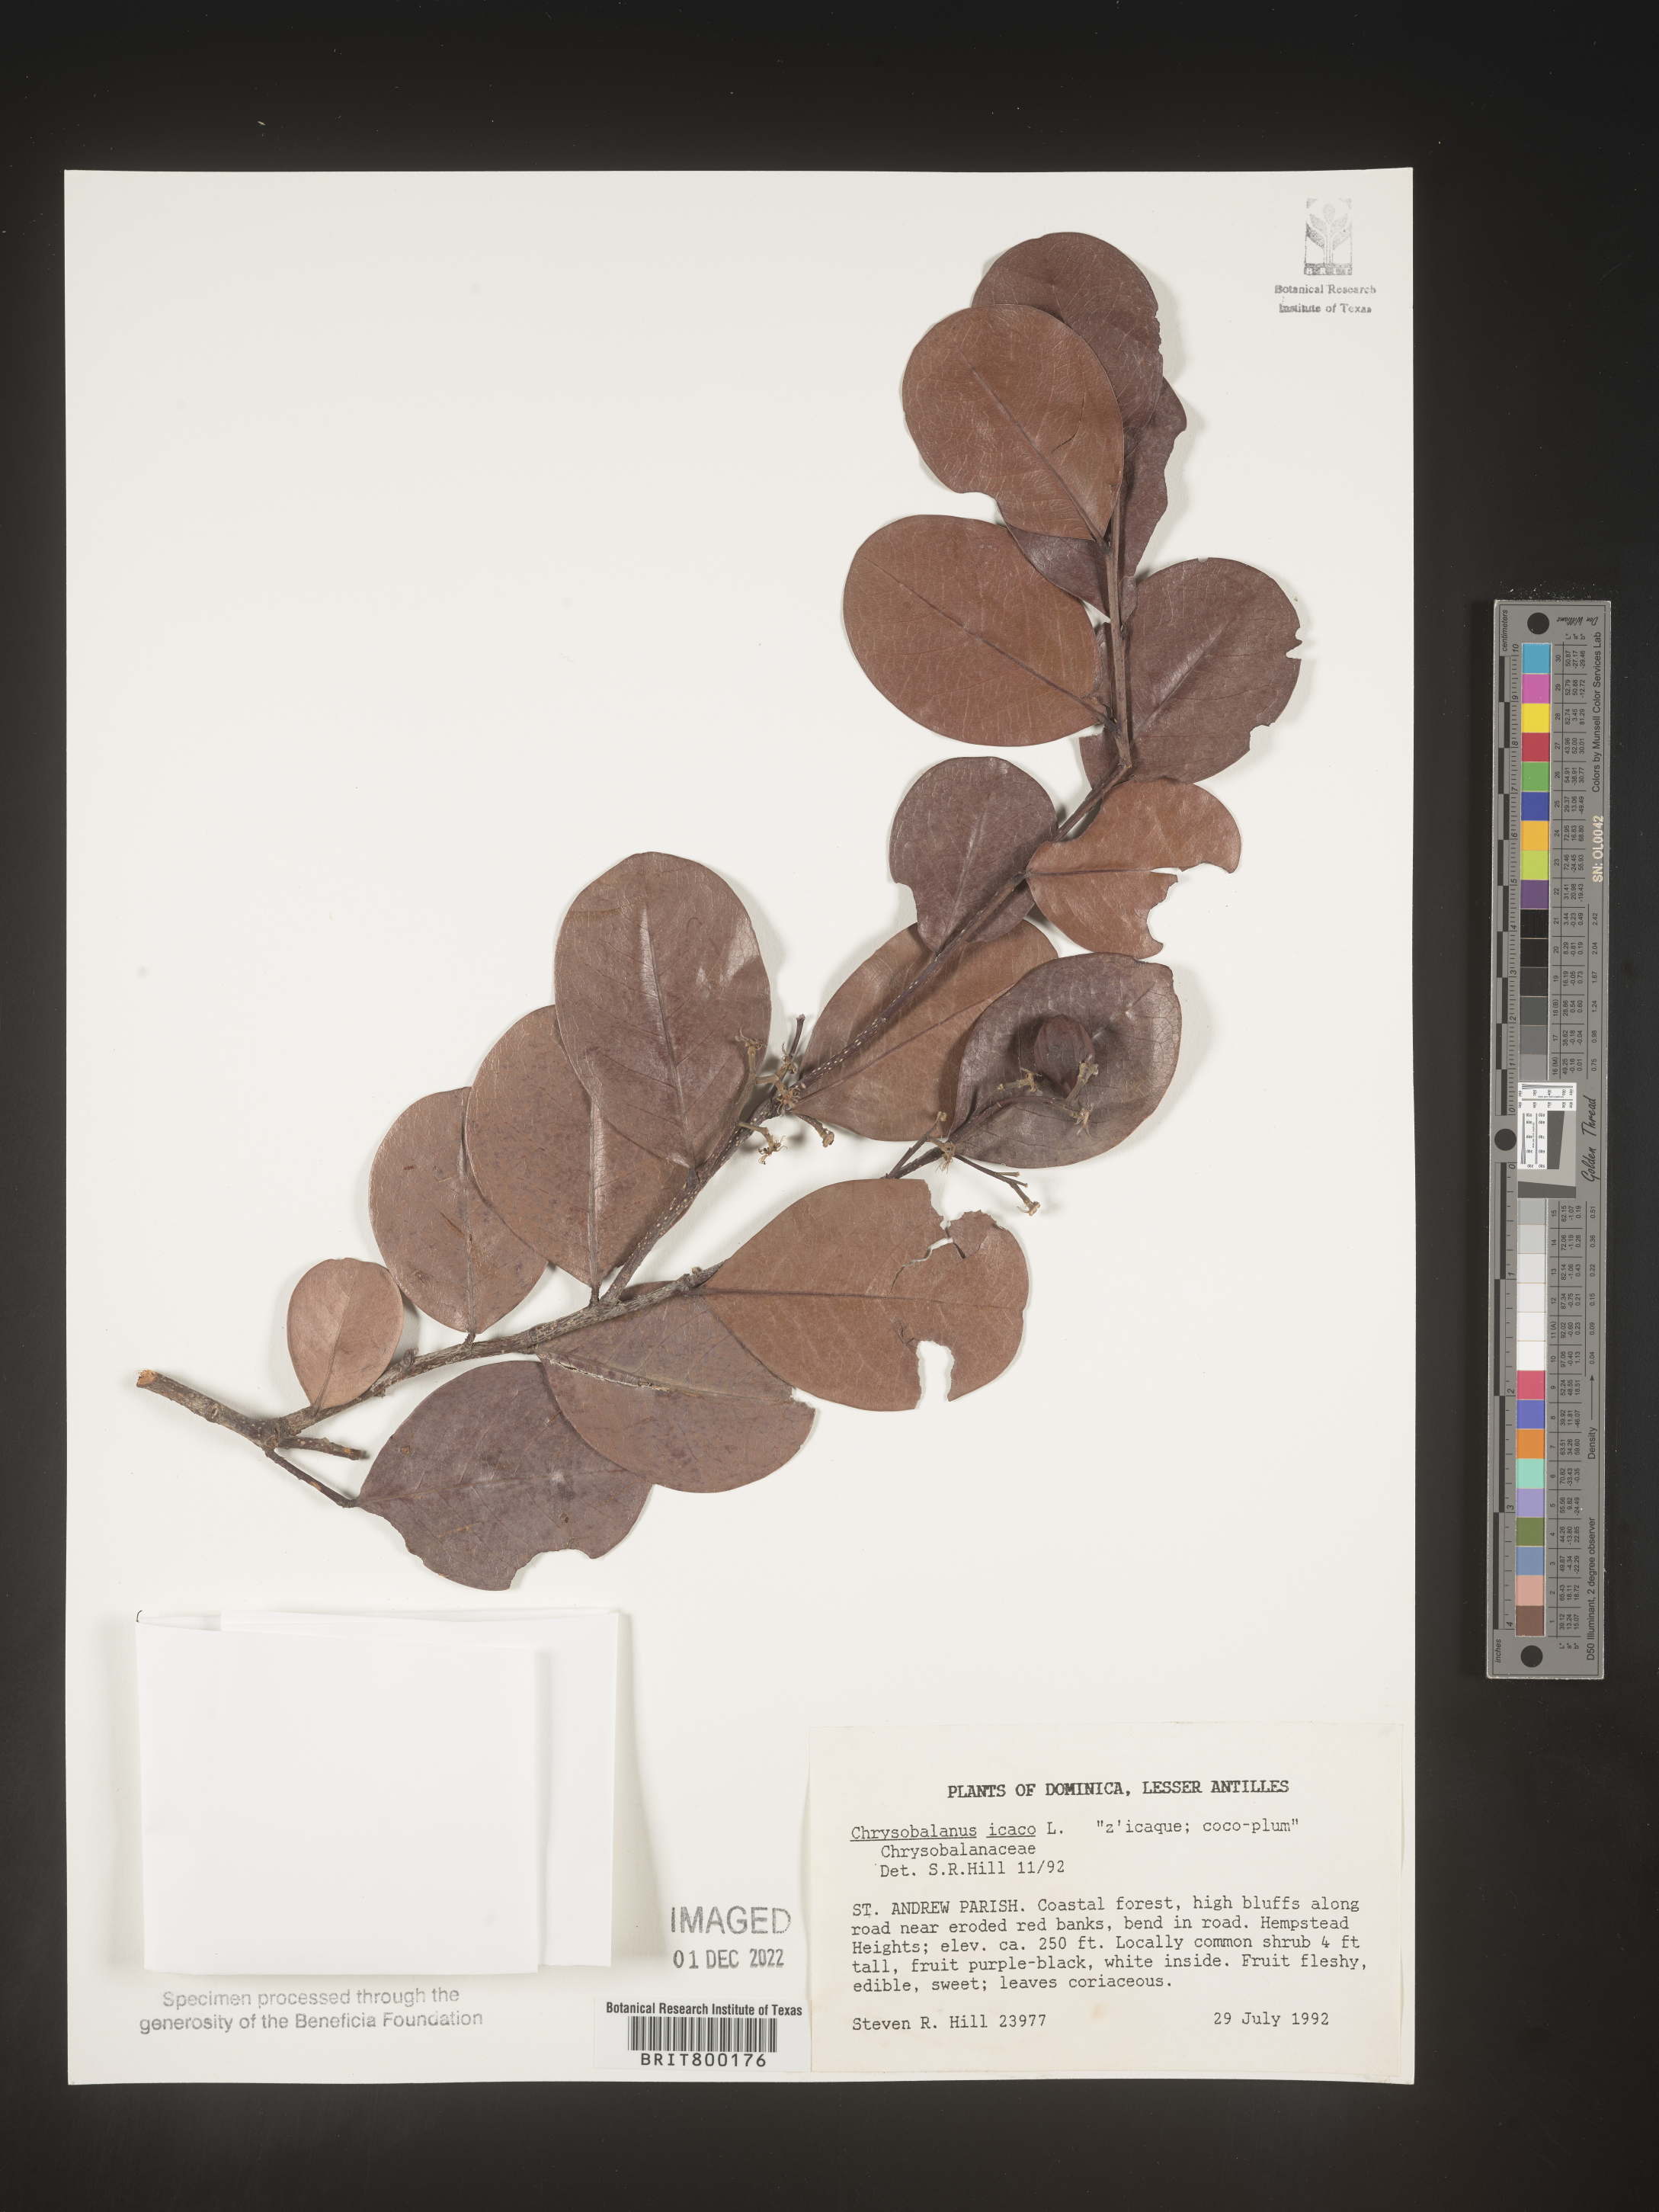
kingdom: Plantae
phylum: Tracheophyta
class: Magnoliopsida
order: Malpighiales
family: Chrysobalanaceae
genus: Chrysobalanus
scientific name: Chrysobalanus
